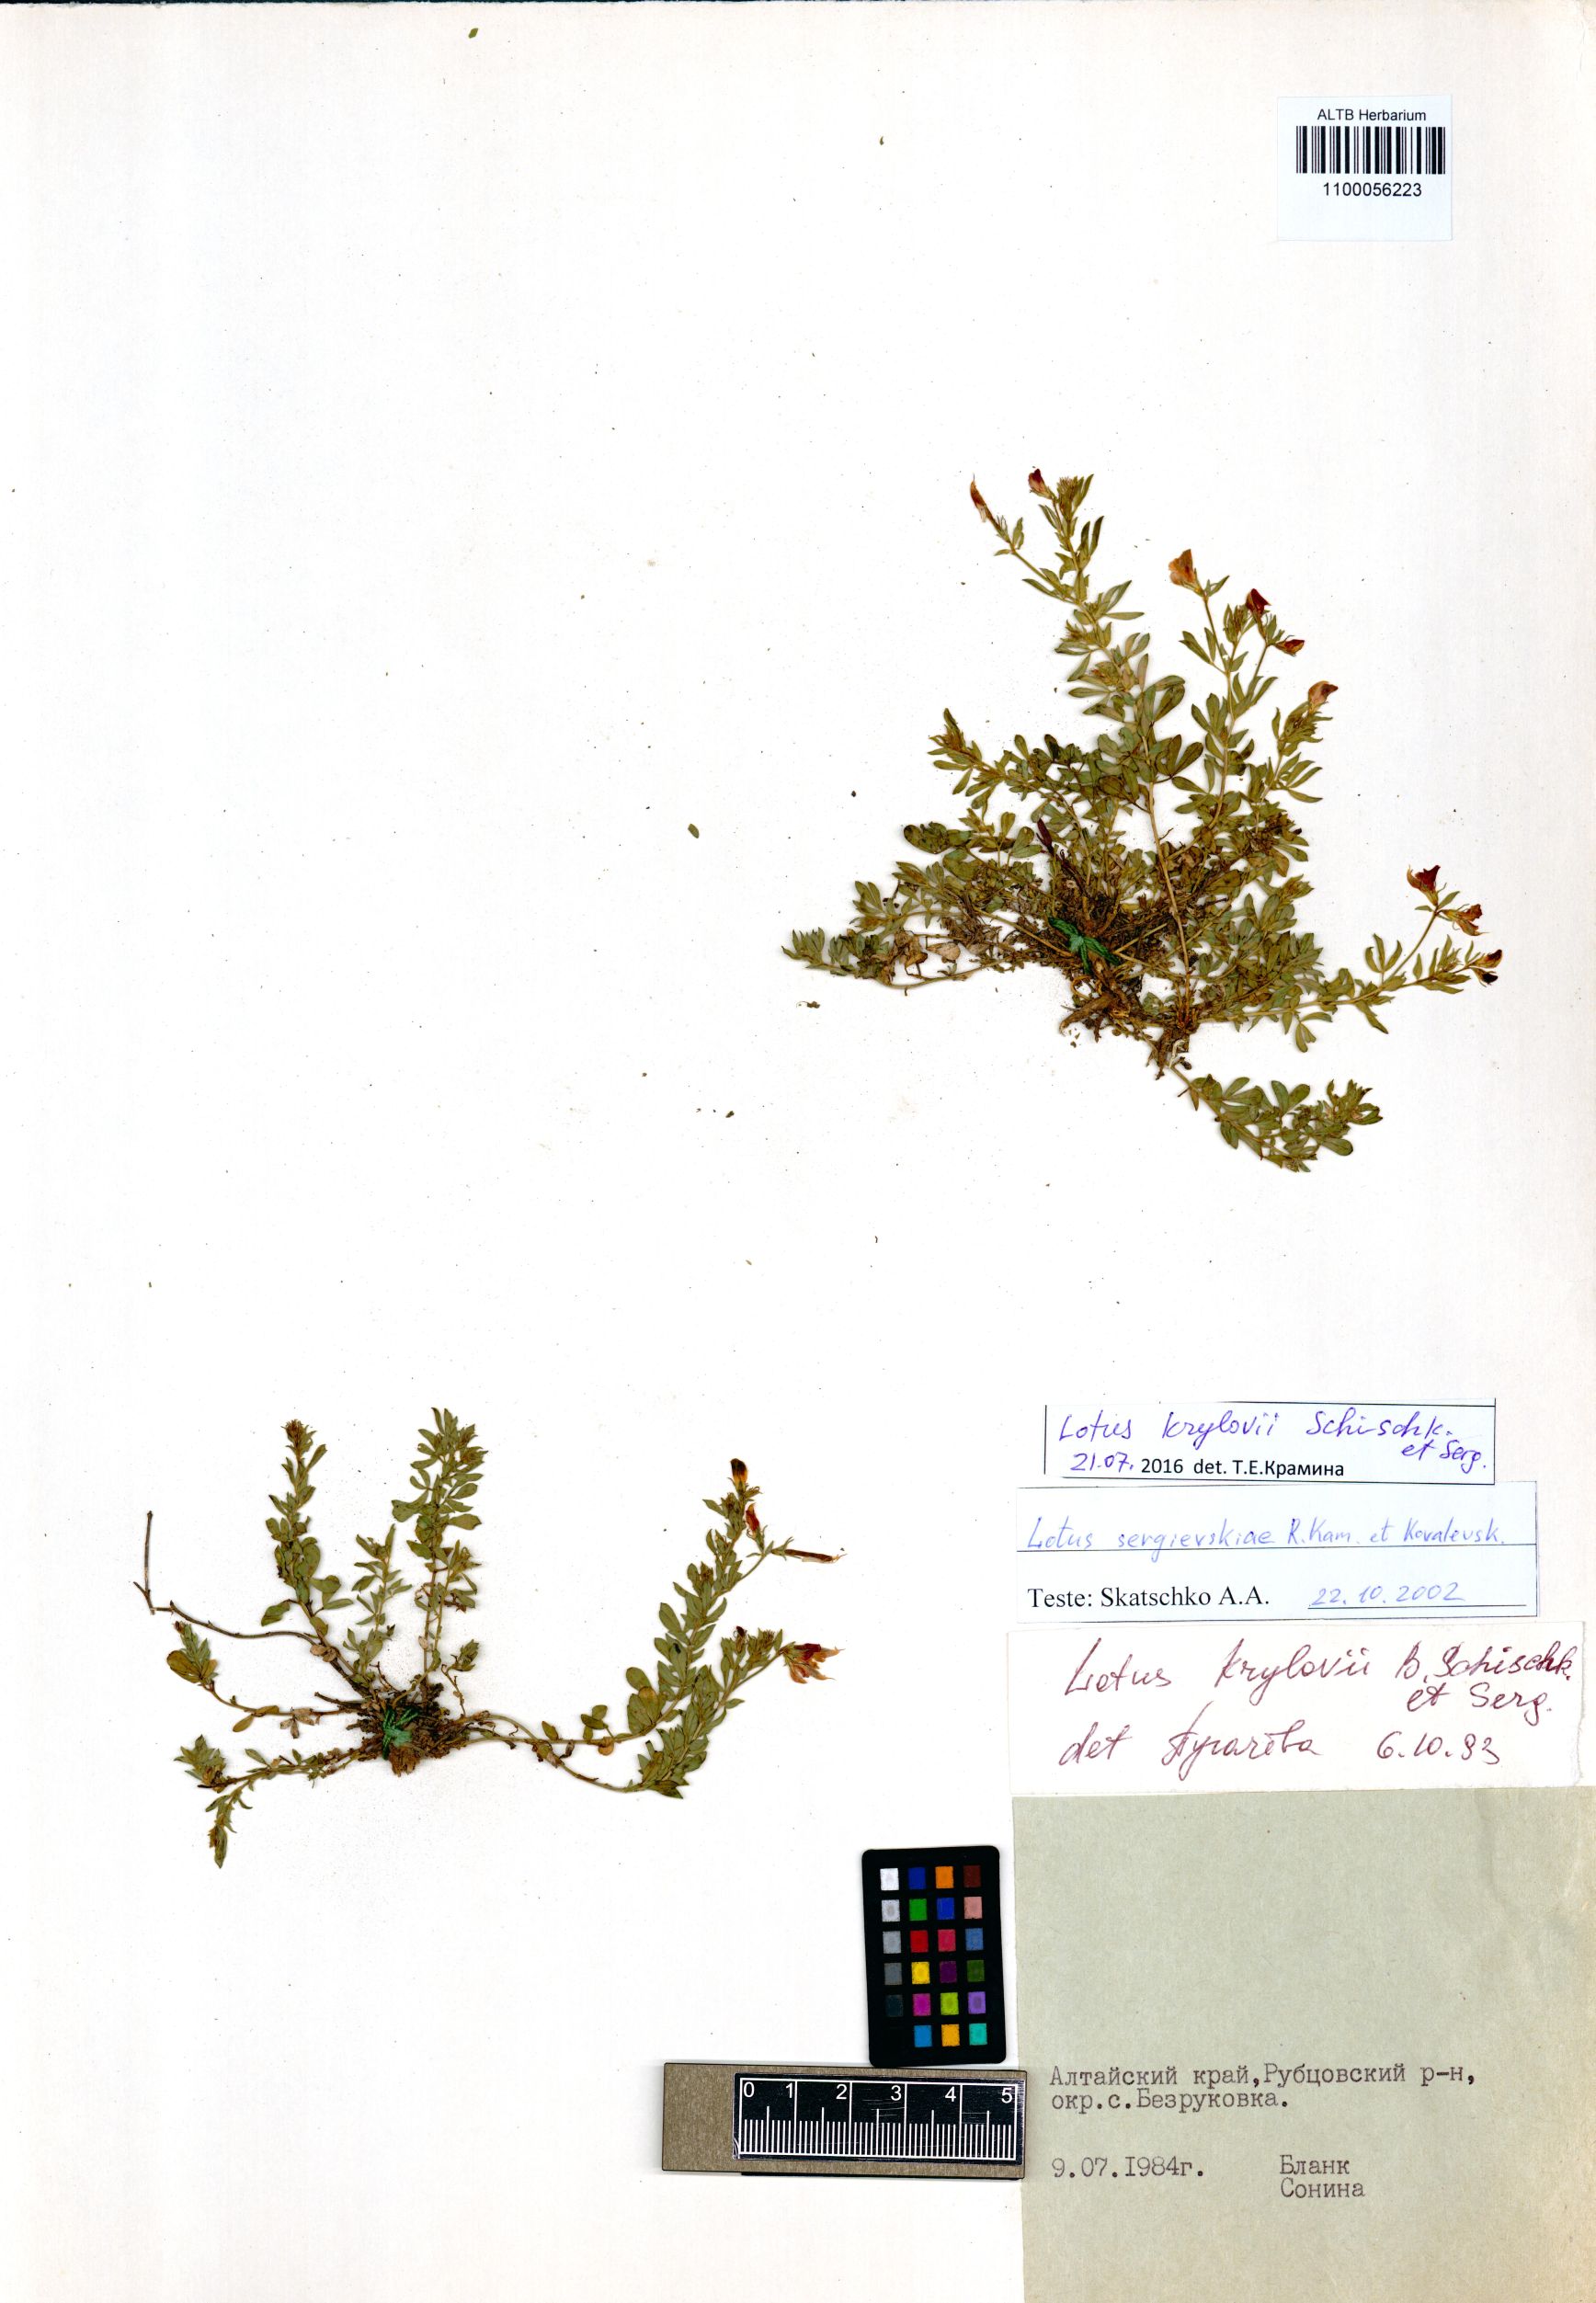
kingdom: Plantae
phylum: Tracheophyta
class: Magnoliopsida
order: Fabales
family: Fabaceae
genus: Lotus
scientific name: Lotus krylovii
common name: Krylov's bird's-foot trefoil
